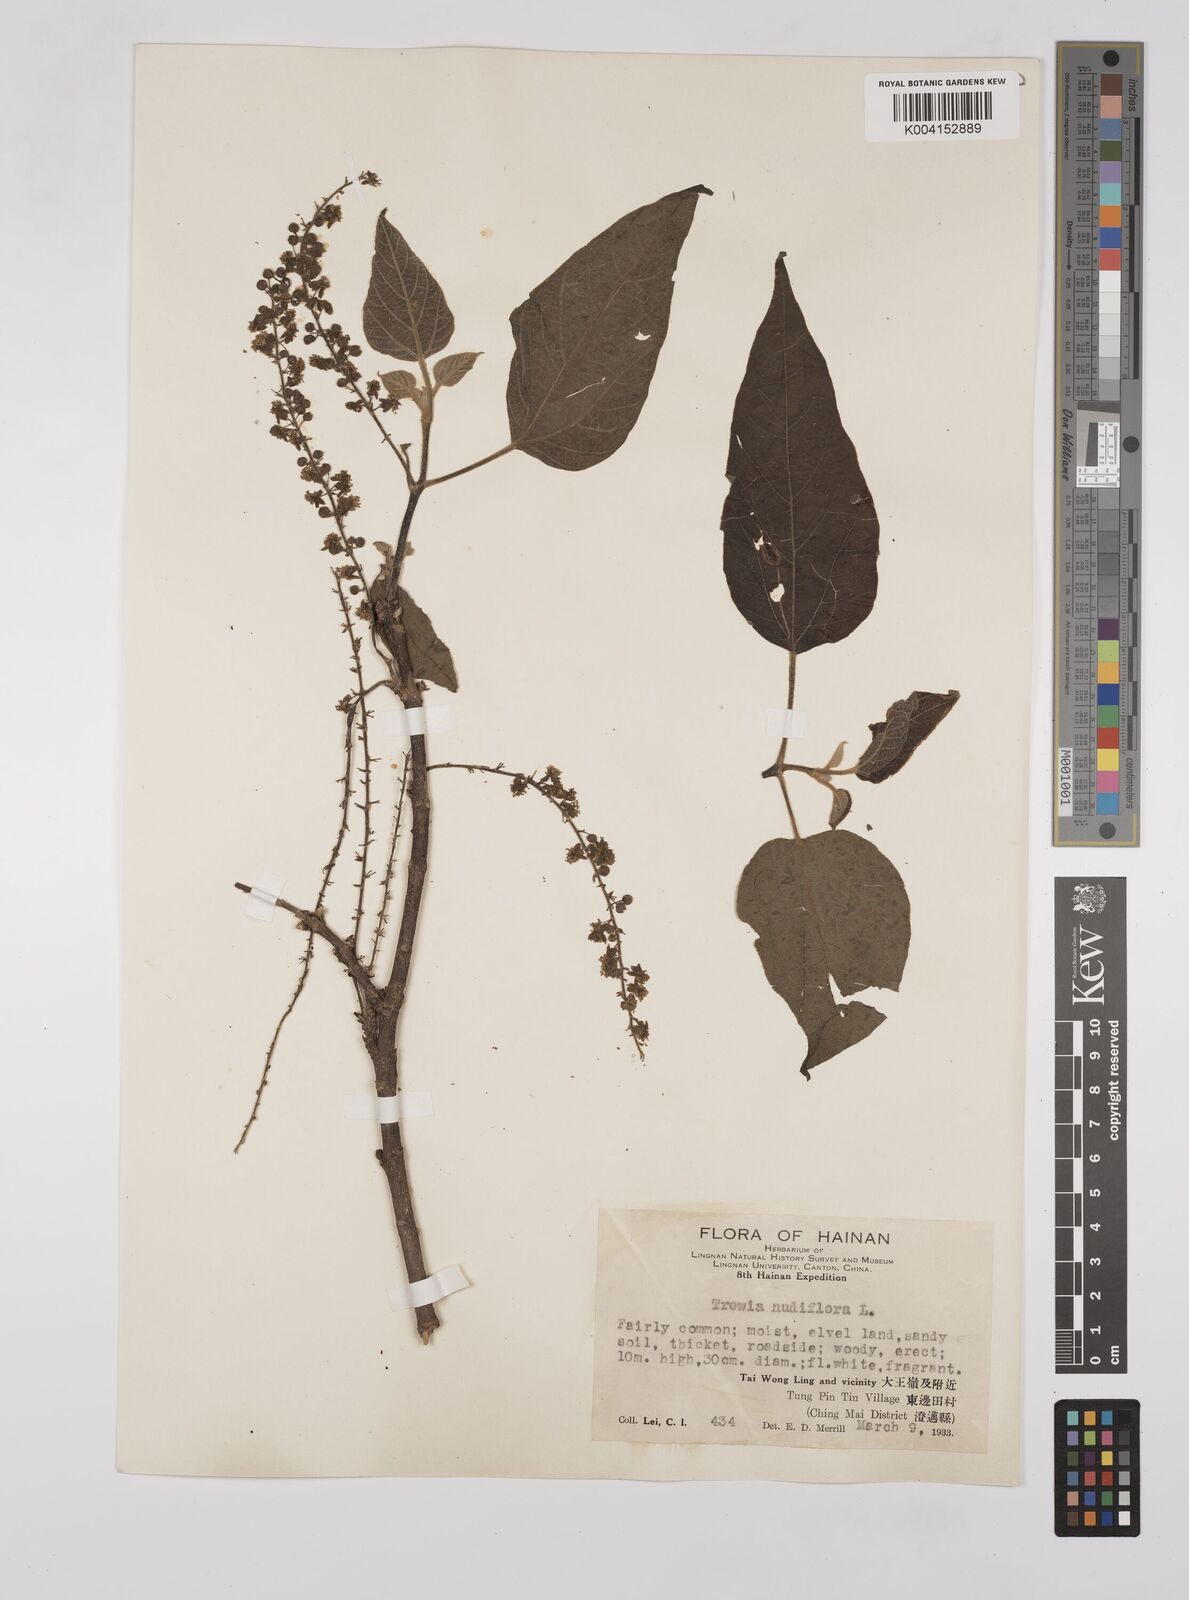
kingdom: Plantae
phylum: Tracheophyta
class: Magnoliopsida
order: Malpighiales
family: Euphorbiaceae
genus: Mallotus
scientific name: Mallotus nudiflorus
